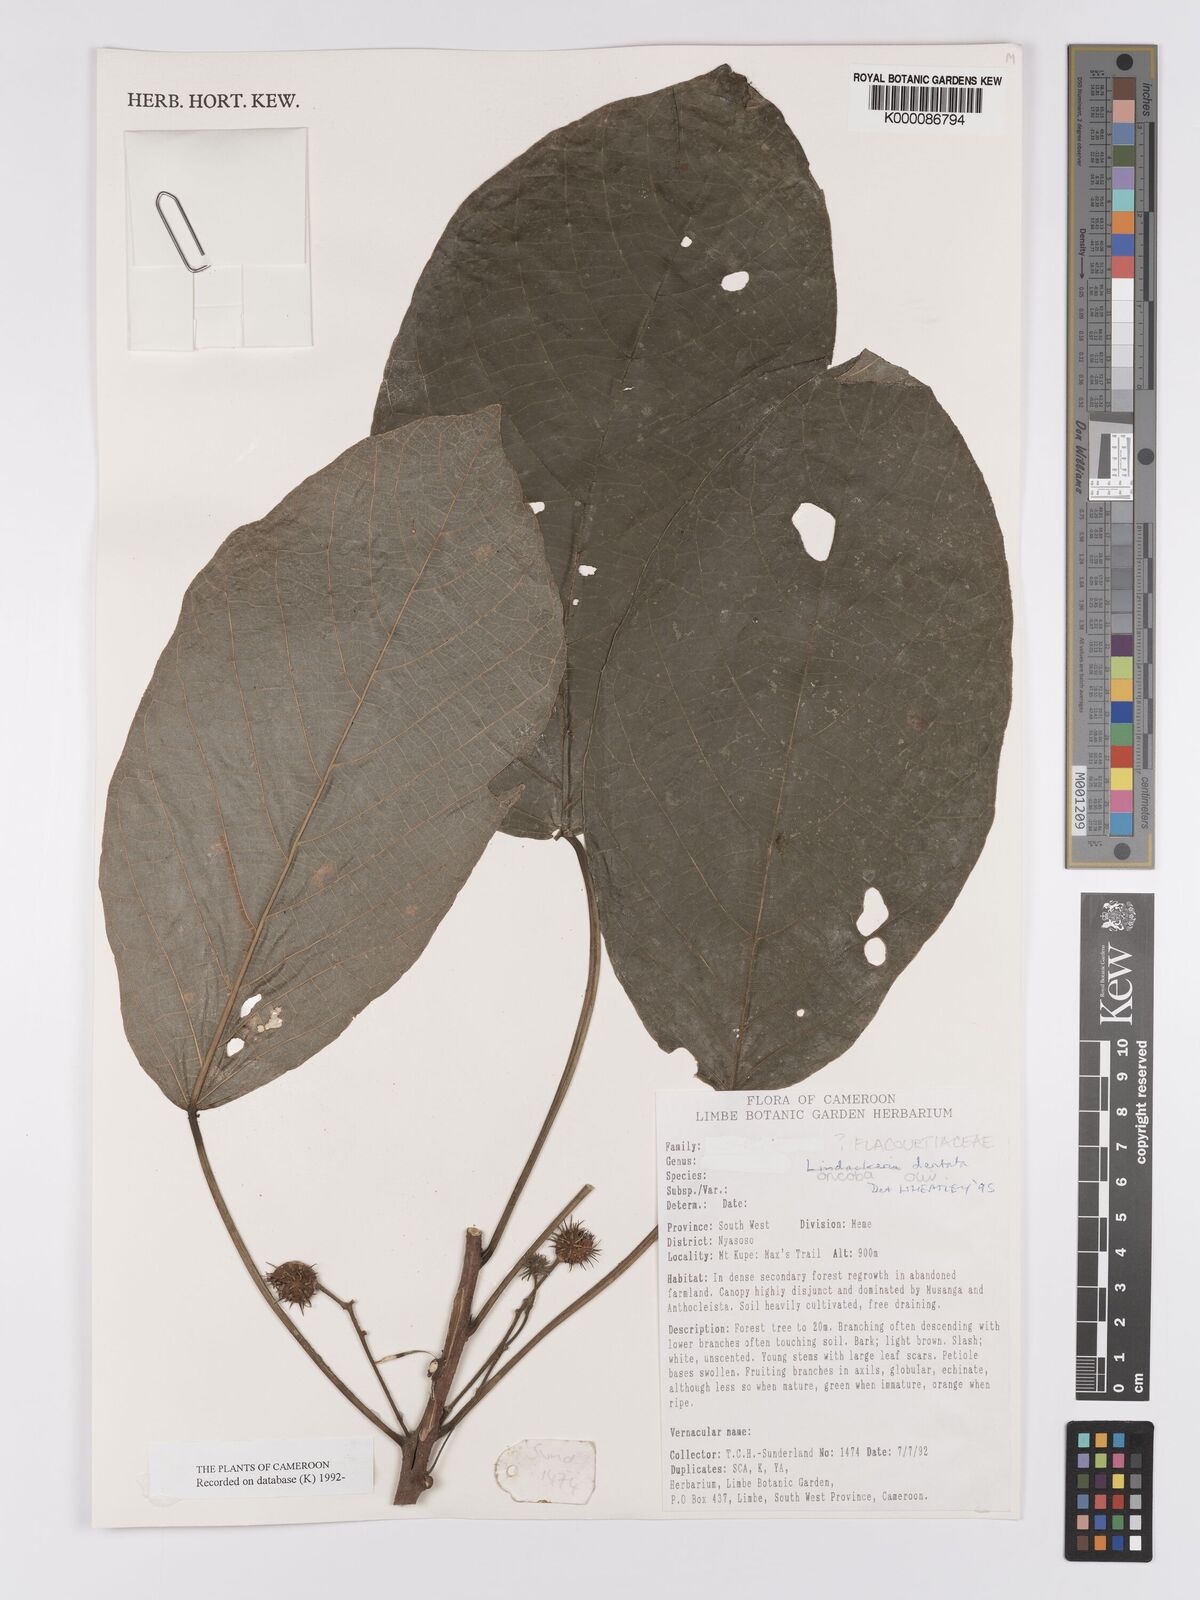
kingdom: Plantae
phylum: Tracheophyta
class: Magnoliopsida
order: Malpighiales
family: Achariaceae
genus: Lindackeria
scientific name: Lindackeria dentata
